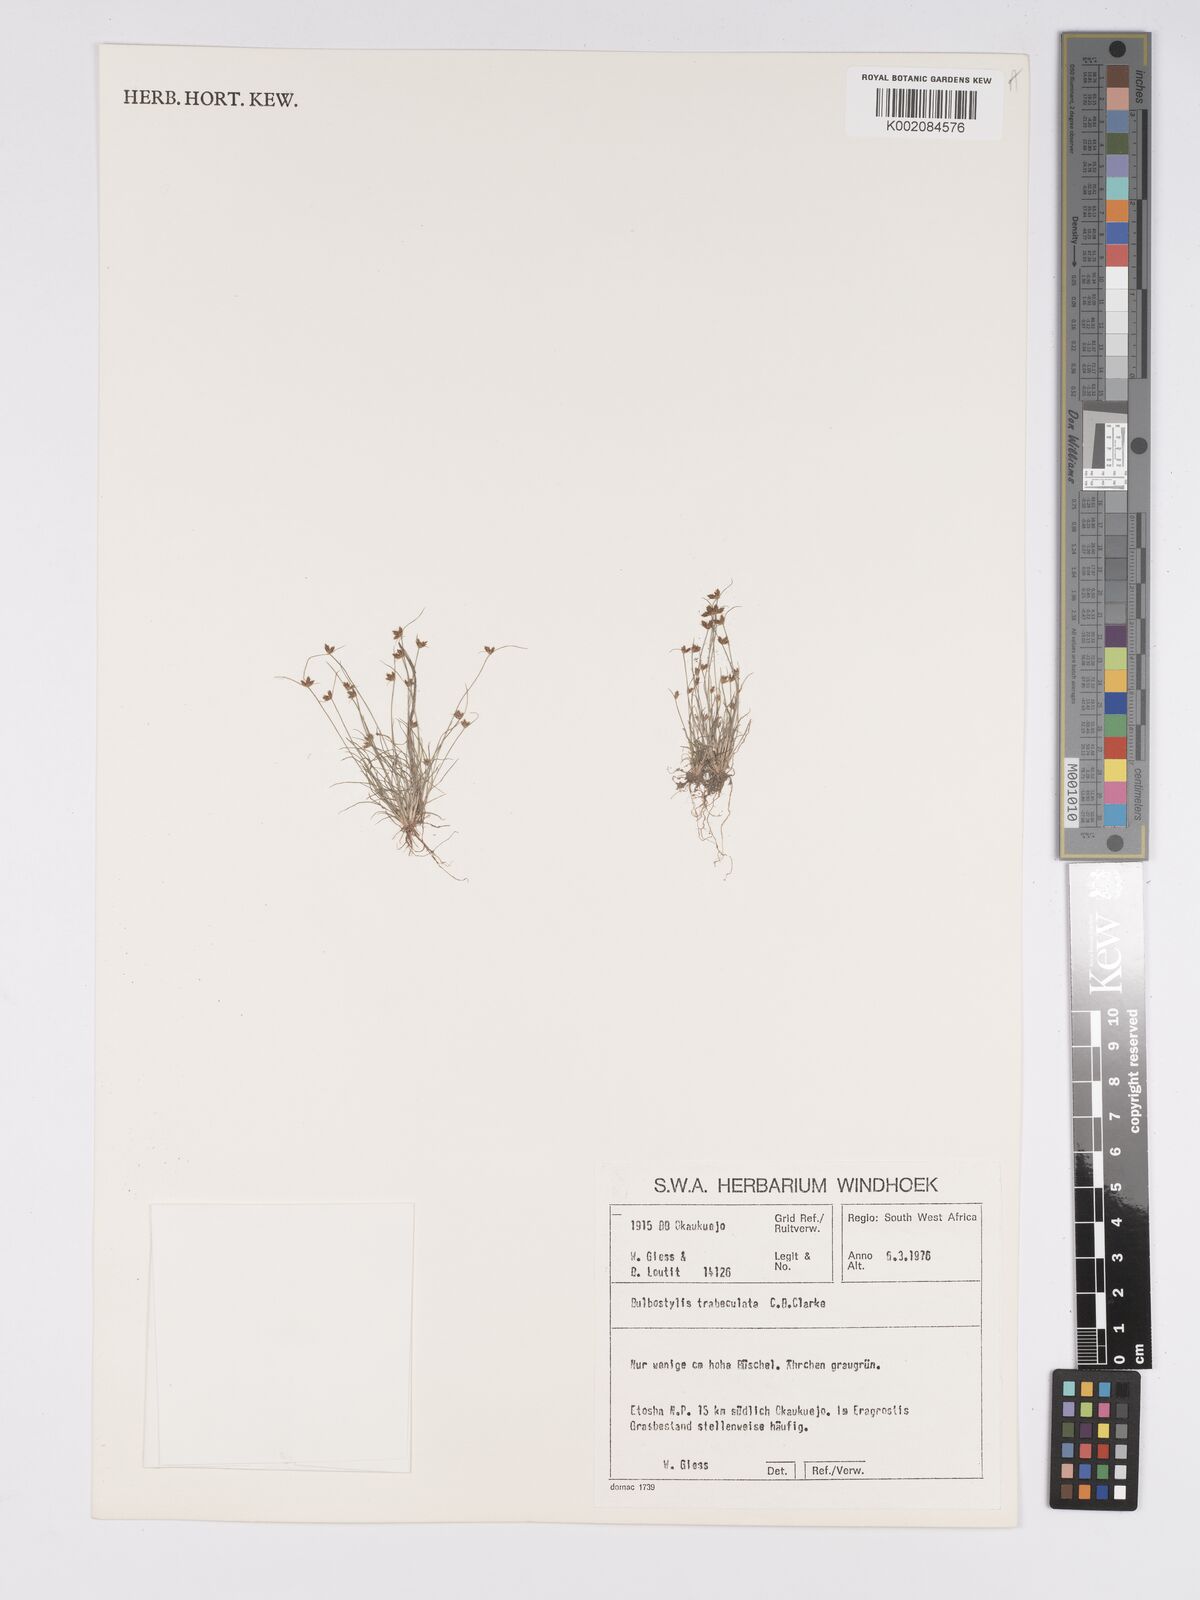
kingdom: Plantae
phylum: Tracheophyta
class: Liliopsida
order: Poales
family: Cyperaceae
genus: Bulbostylis
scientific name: Bulbostylis trabeculata
